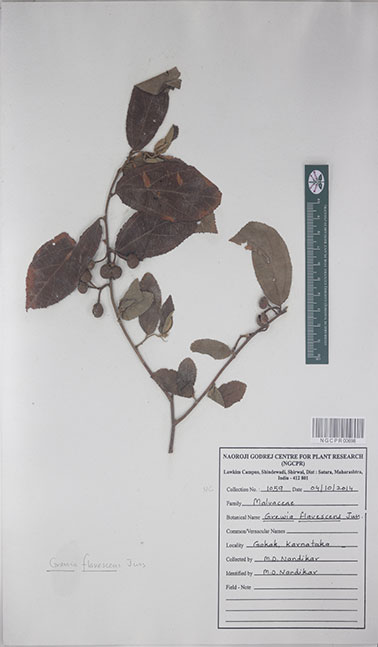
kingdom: Plantae
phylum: Tracheophyta
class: Magnoliopsida
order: Malvales
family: Malvaceae
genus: Grewia
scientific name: Grewia flavescens
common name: Sandpaper raisin
